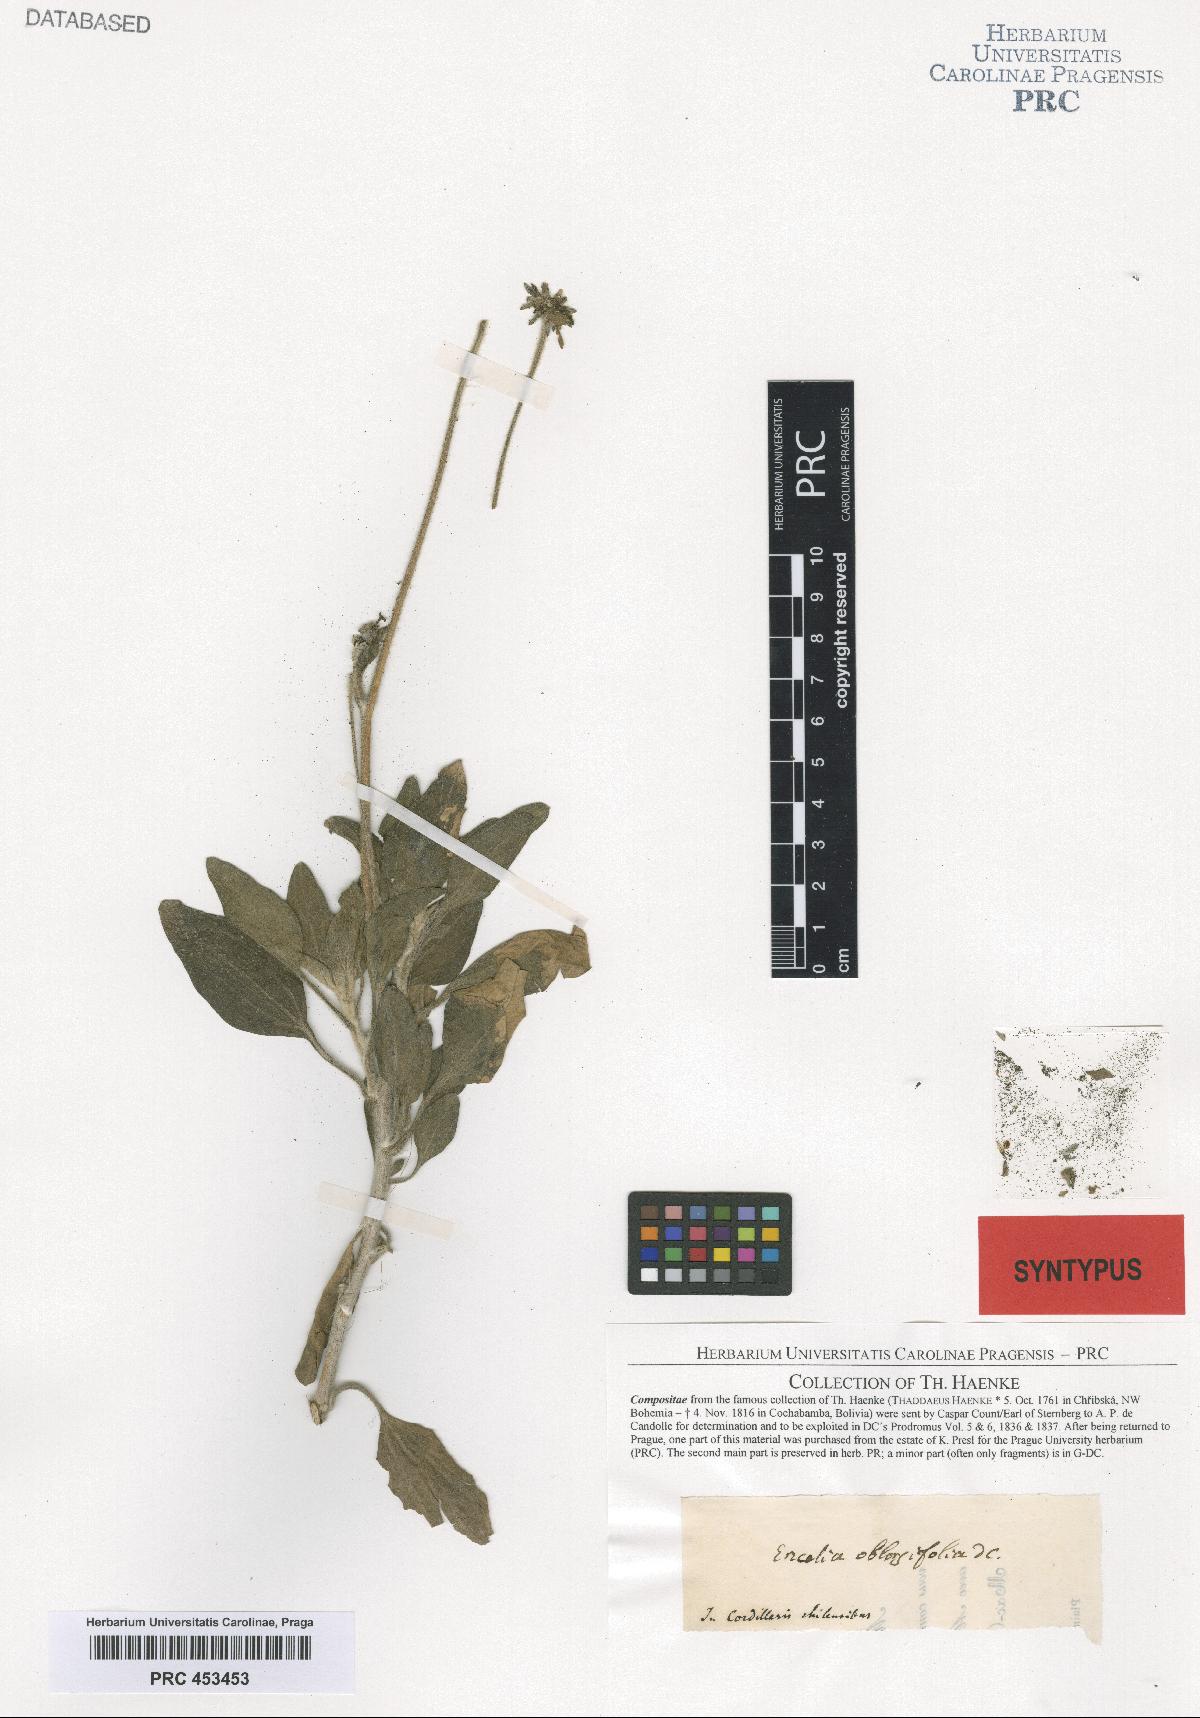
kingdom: Plantae
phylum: Tracheophyta
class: Magnoliopsida
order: Asterales
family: Asteraceae
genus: Encelia
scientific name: Encelia canescens
